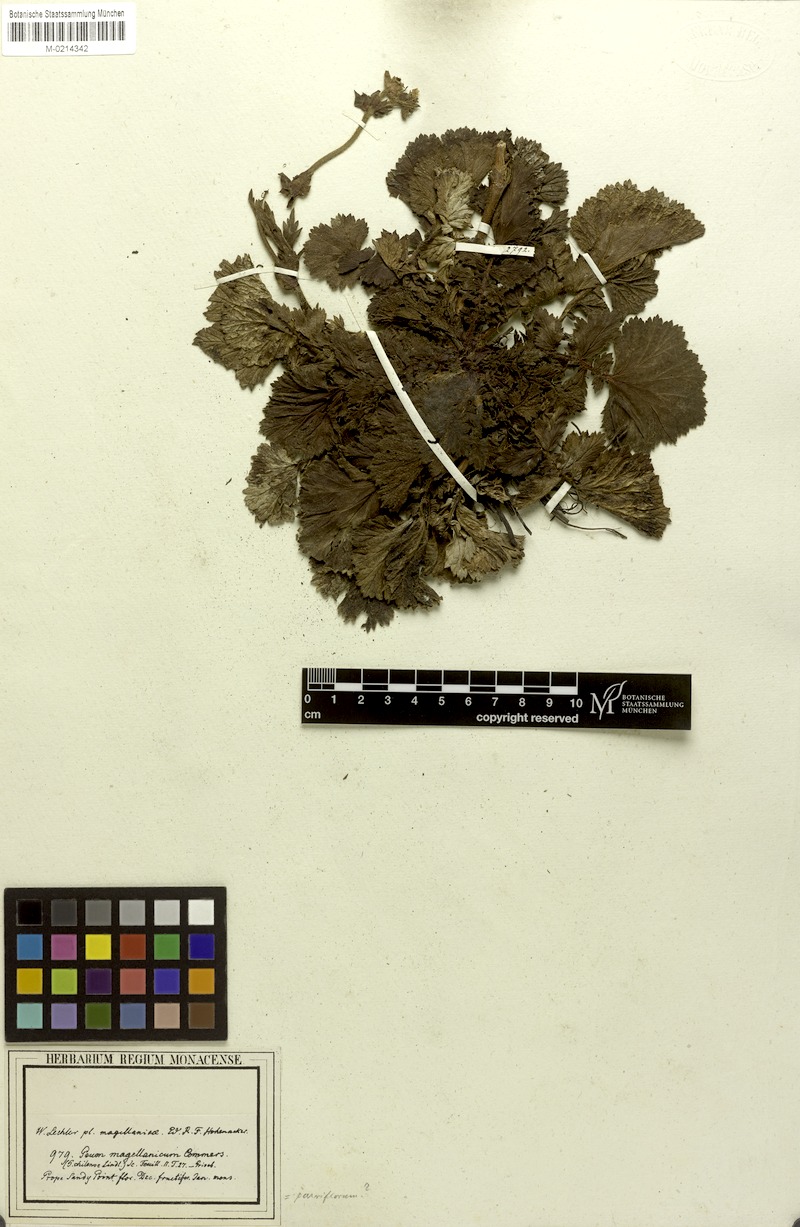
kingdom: Plantae
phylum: Tracheophyta
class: Magnoliopsida
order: Rosales
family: Rosaceae
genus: Geum
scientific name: Geum lechlerianum
